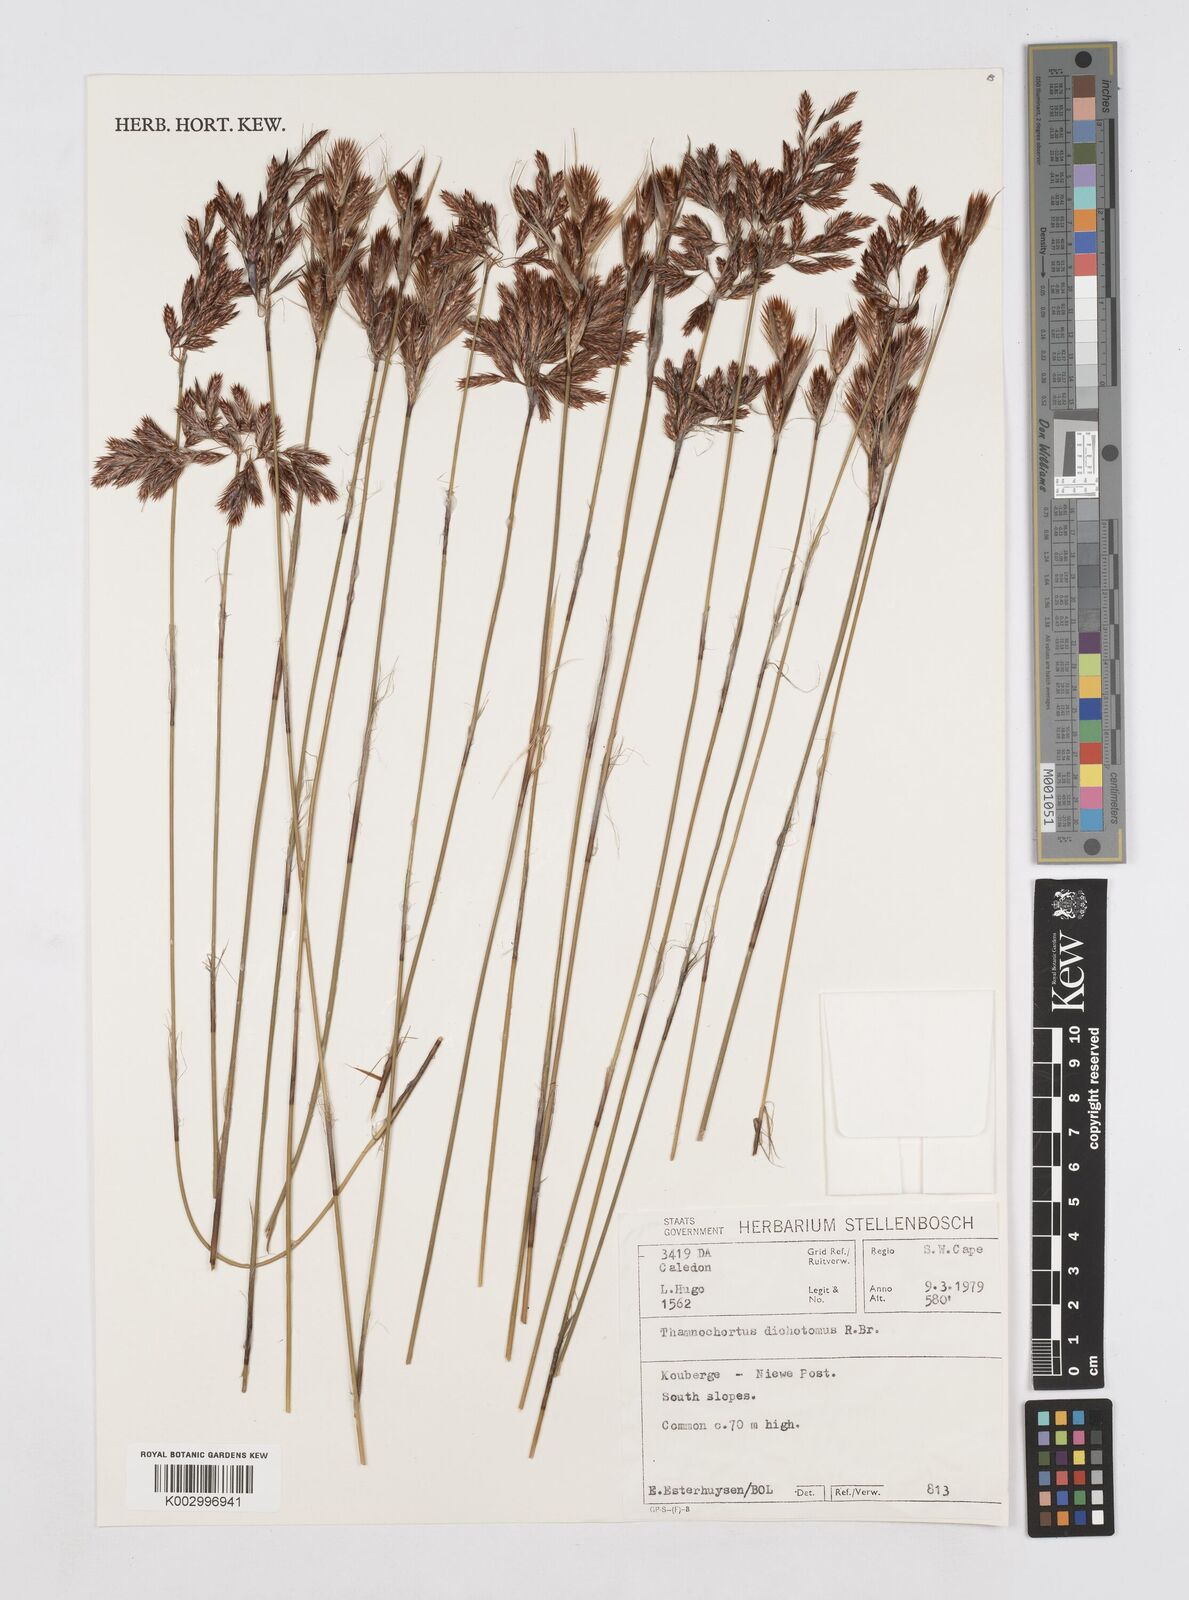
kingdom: Plantae
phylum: Tracheophyta
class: Liliopsida
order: Poales
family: Restionaceae
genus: Thamnochortus
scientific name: Thamnochortus lucens
